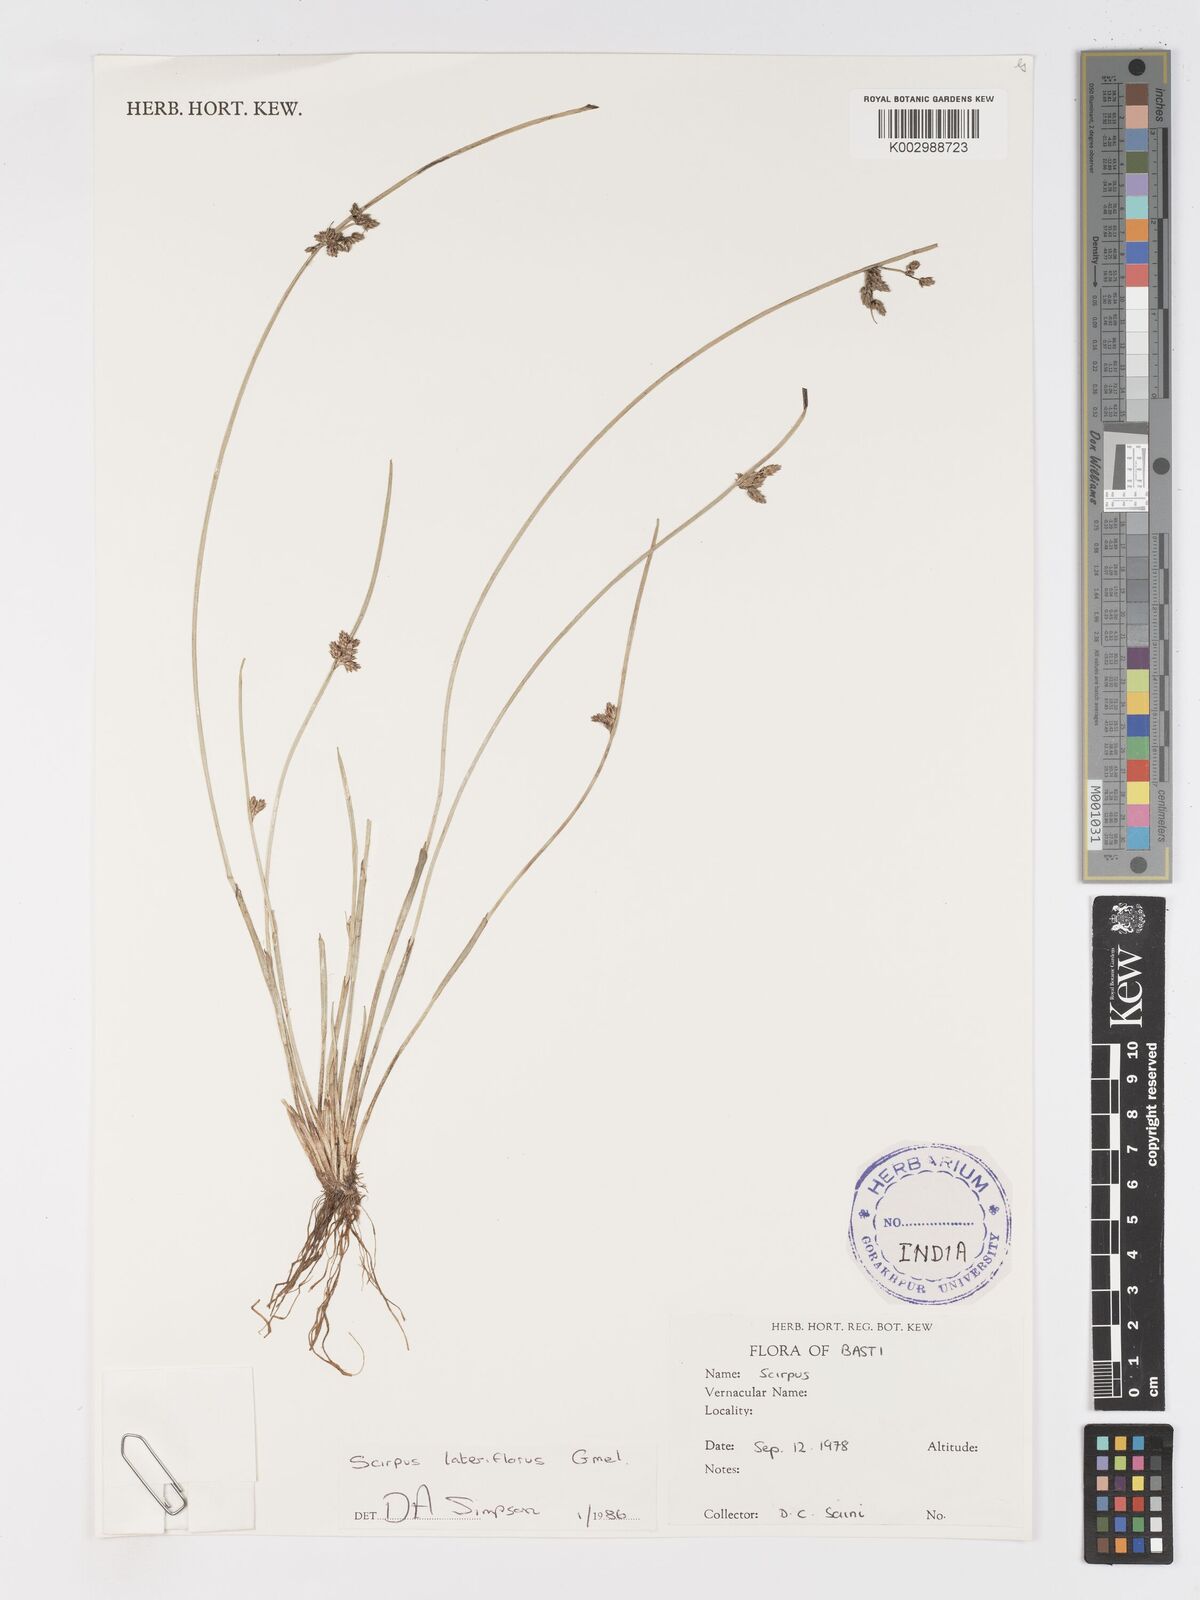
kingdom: Plantae
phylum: Tracheophyta
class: Liliopsida
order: Poales
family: Cyperaceae
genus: Schoenoplectiella
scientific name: Schoenoplectiella lateriflora
